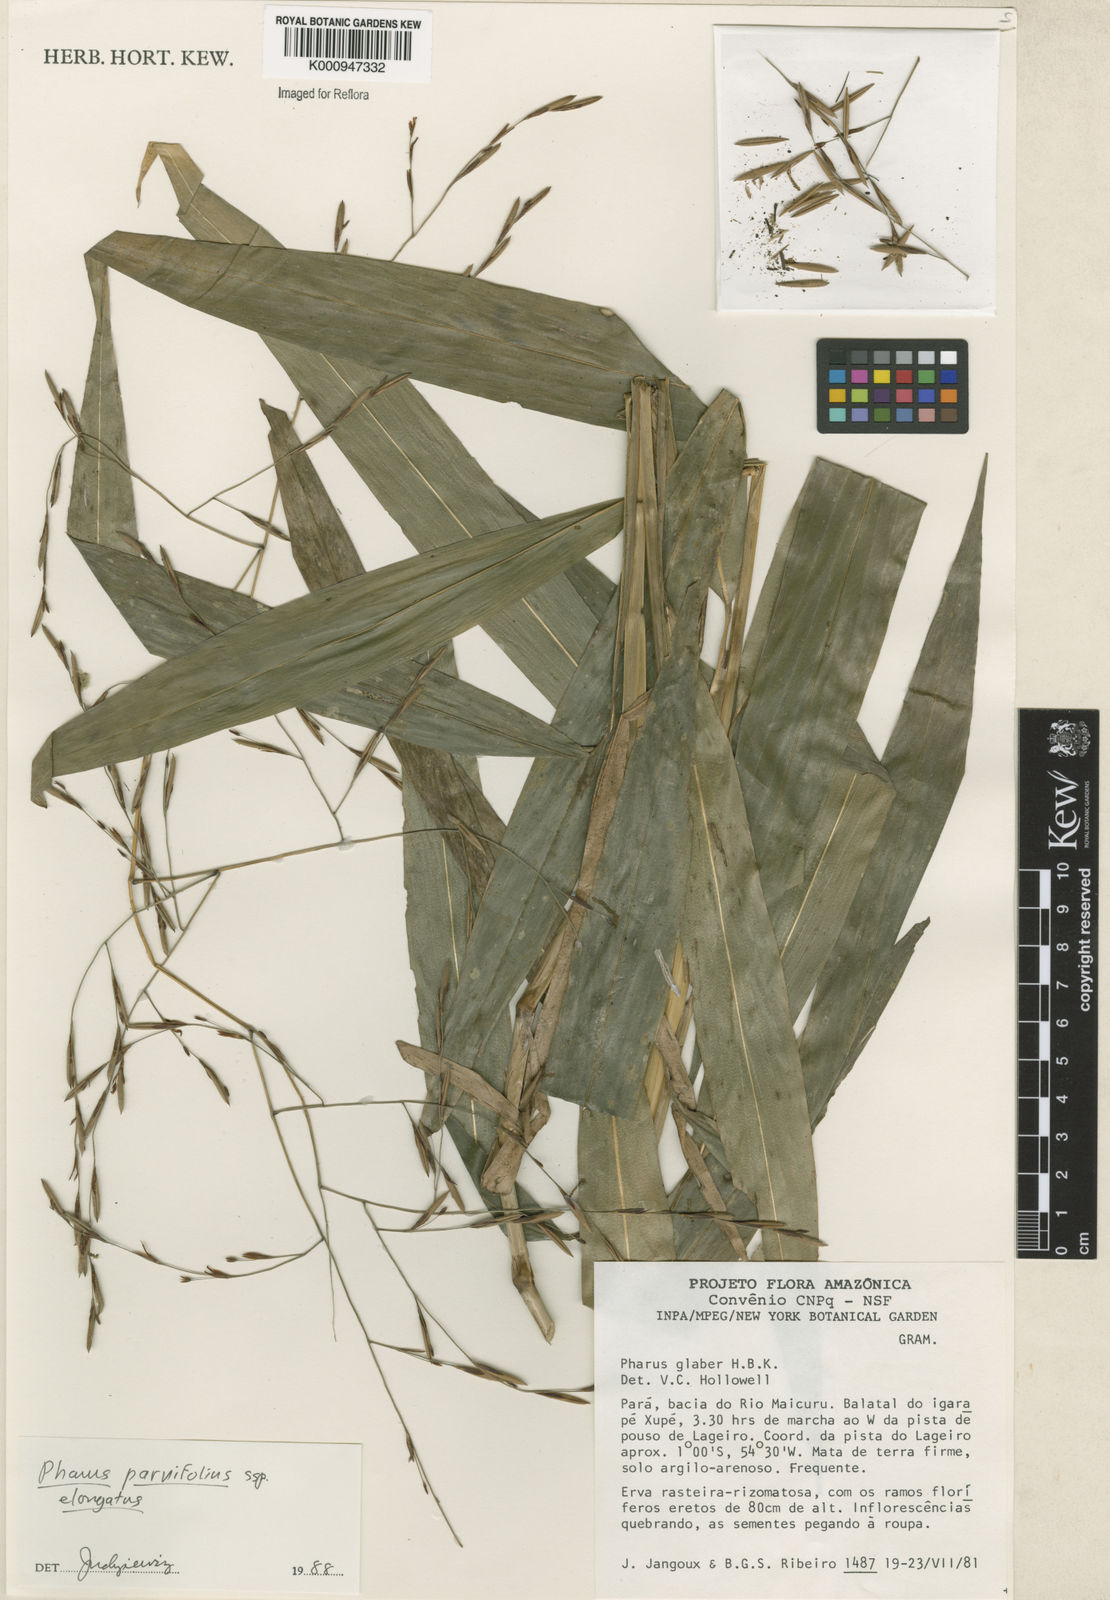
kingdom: Plantae
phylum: Tracheophyta
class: Liliopsida
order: Poales
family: Poaceae
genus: Pharus
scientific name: Pharus parvifolius
